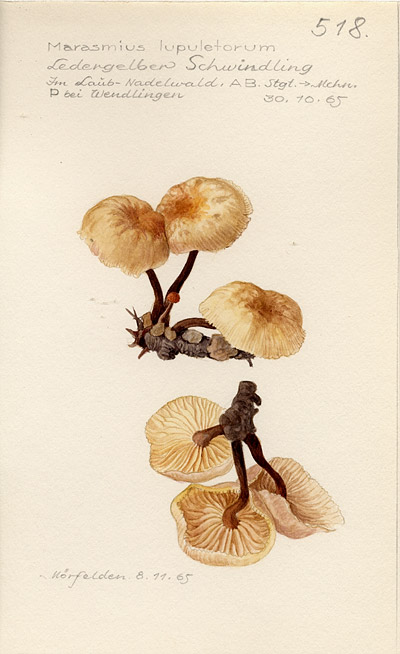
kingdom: Fungi
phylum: Basidiomycota
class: Agaricomycetes
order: Agaricales
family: Omphalotaceae
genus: Gymnopus
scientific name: Gymnopus dryophilus
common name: Penny top
